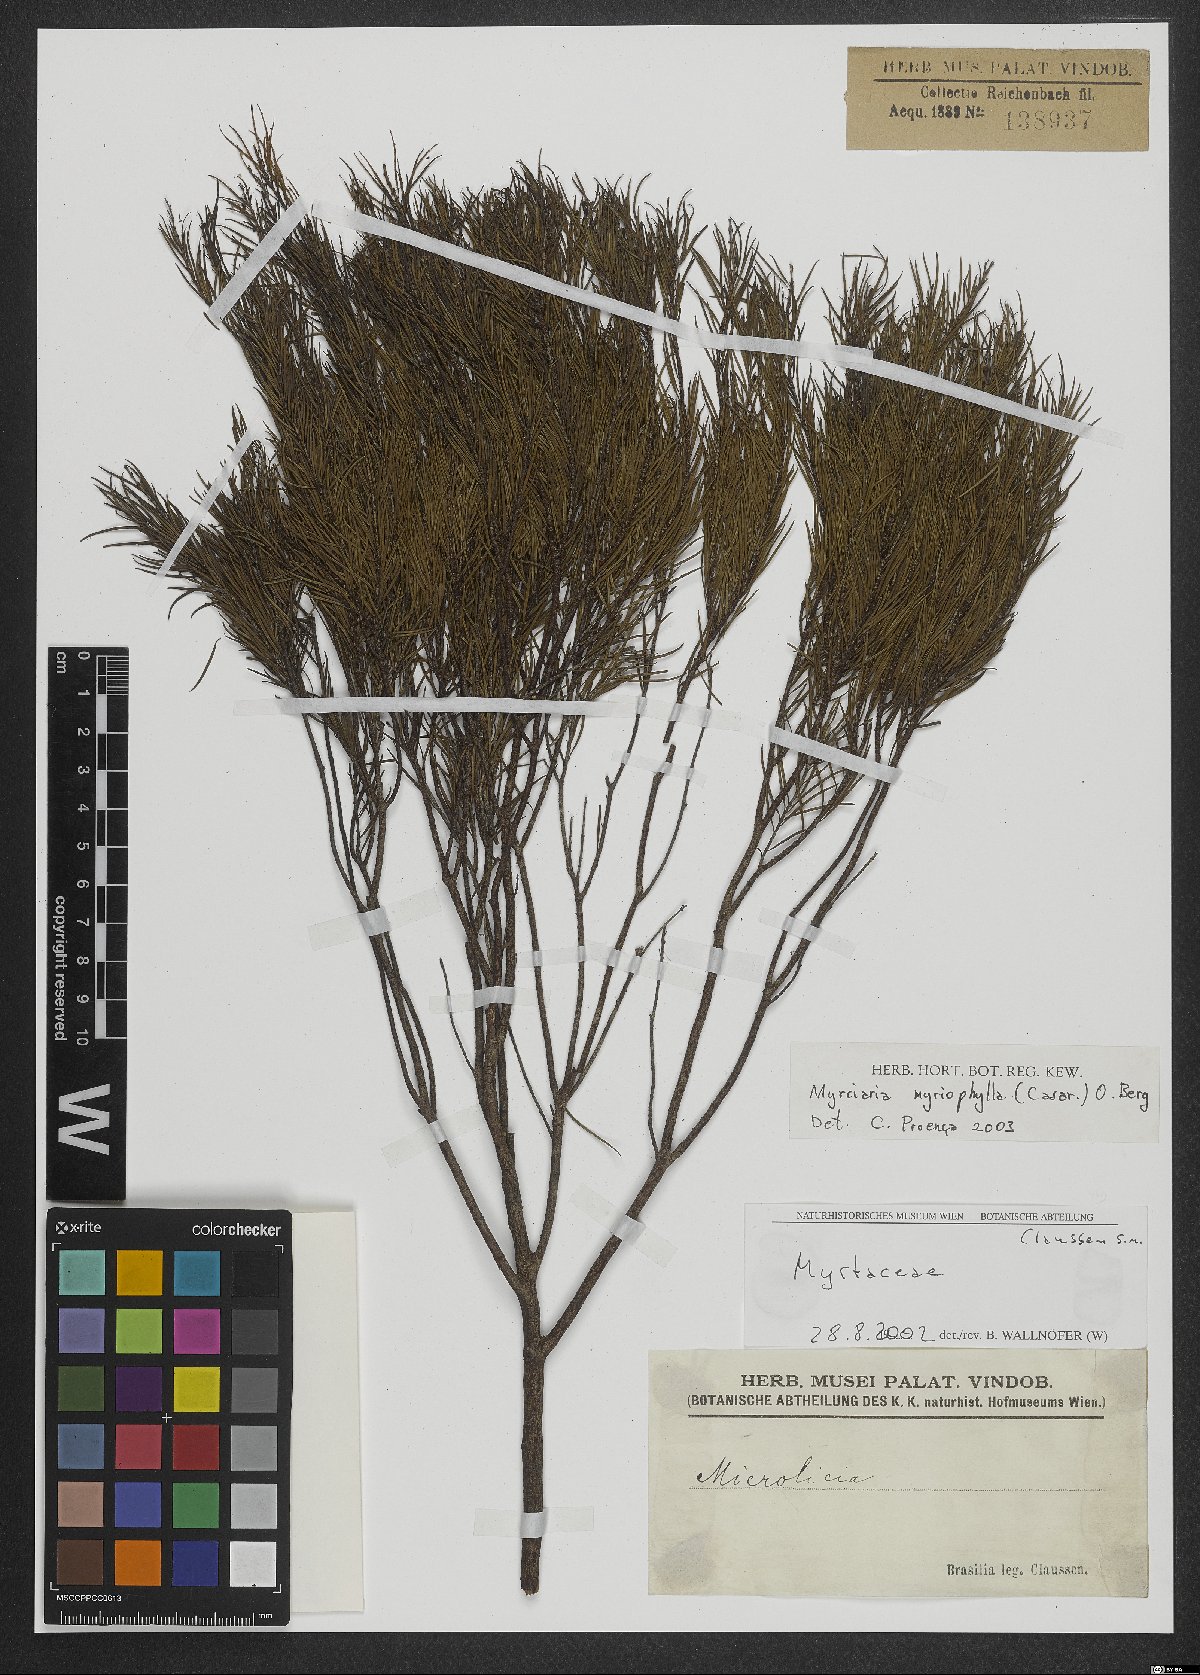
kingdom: Plantae
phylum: Tracheophyta
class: Magnoliopsida
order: Myrtales
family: Myrtaceae
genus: Blepharocalyx
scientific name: Blepharocalyx myriophyllus
